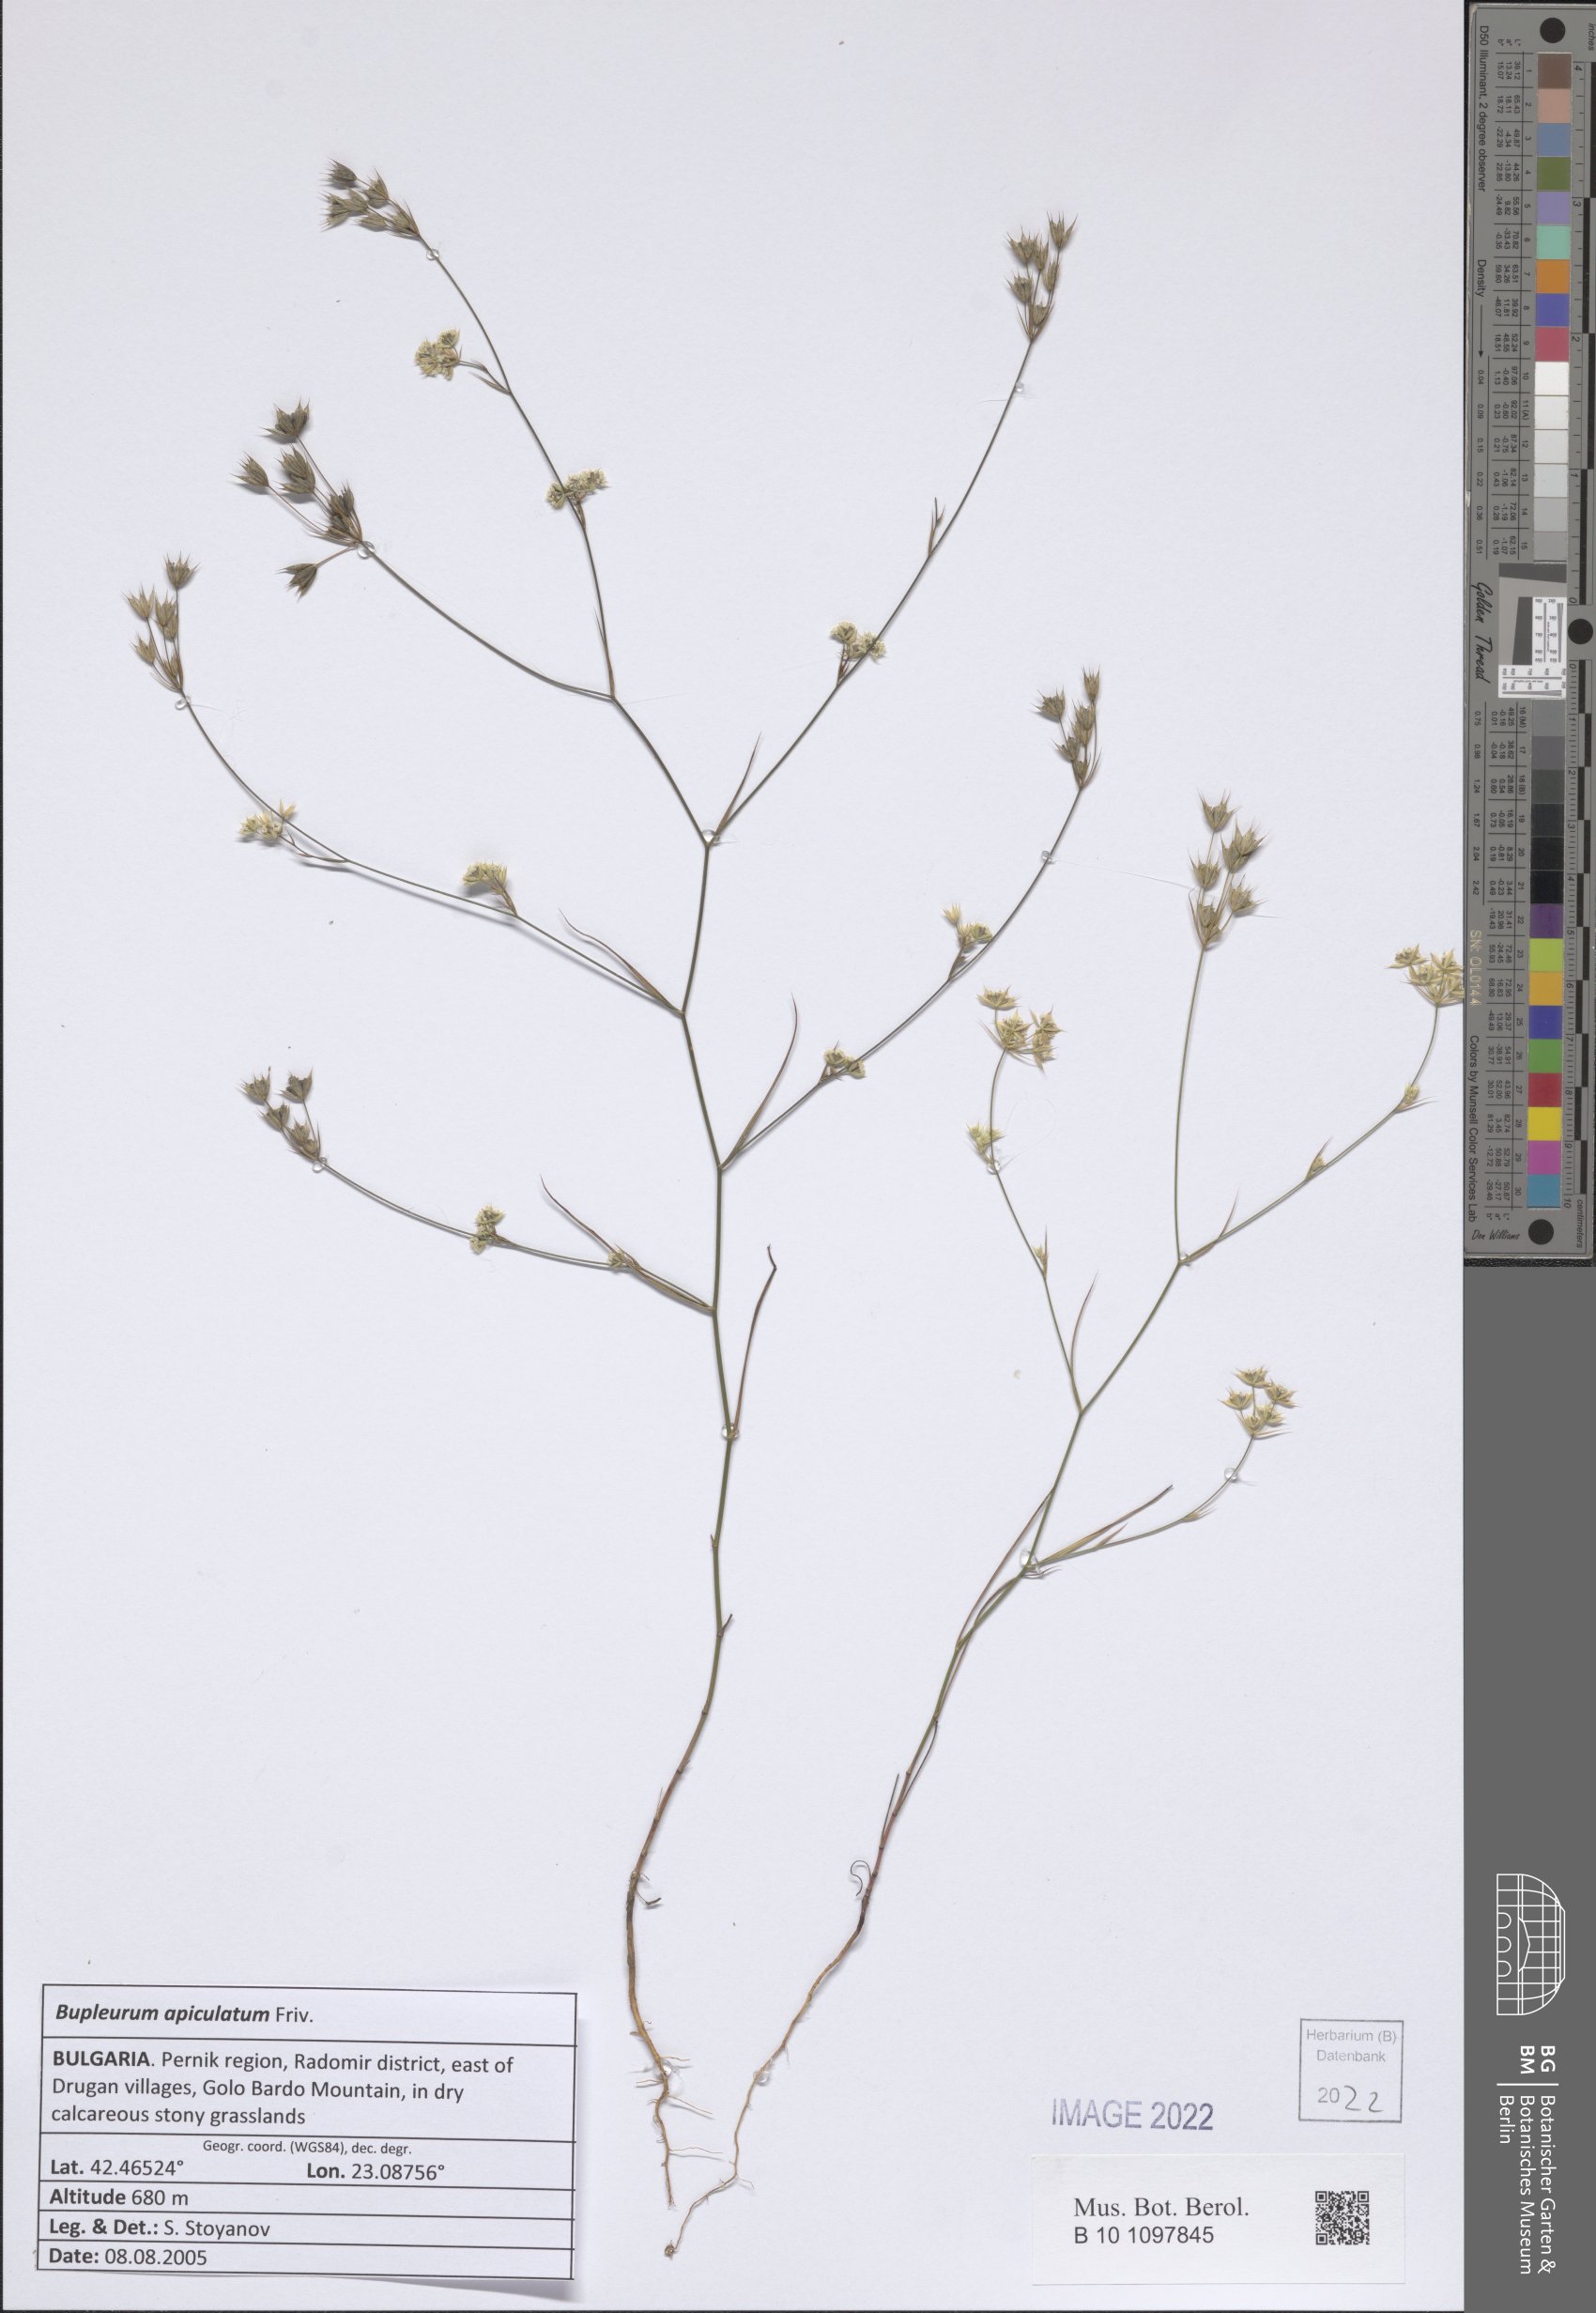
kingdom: Plantae
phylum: Tracheophyta
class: Magnoliopsida
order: Apiales
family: Apiaceae
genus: Bupleurum
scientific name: Bupleurum apiculatum
